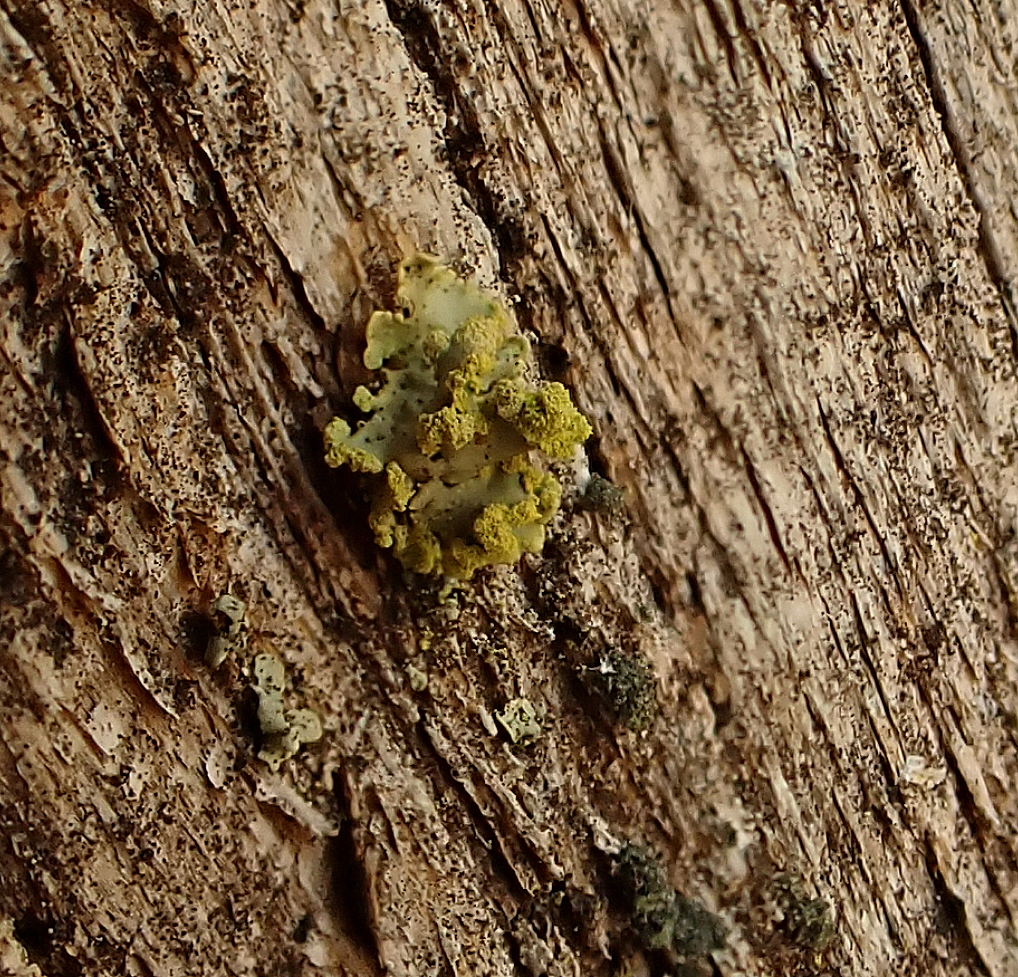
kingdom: Fungi
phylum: Ascomycota
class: Lecanoromycetes
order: Lecanorales
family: Parmeliaceae
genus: Vulpicida
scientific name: Vulpicida pinastri
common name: gul kruslav
